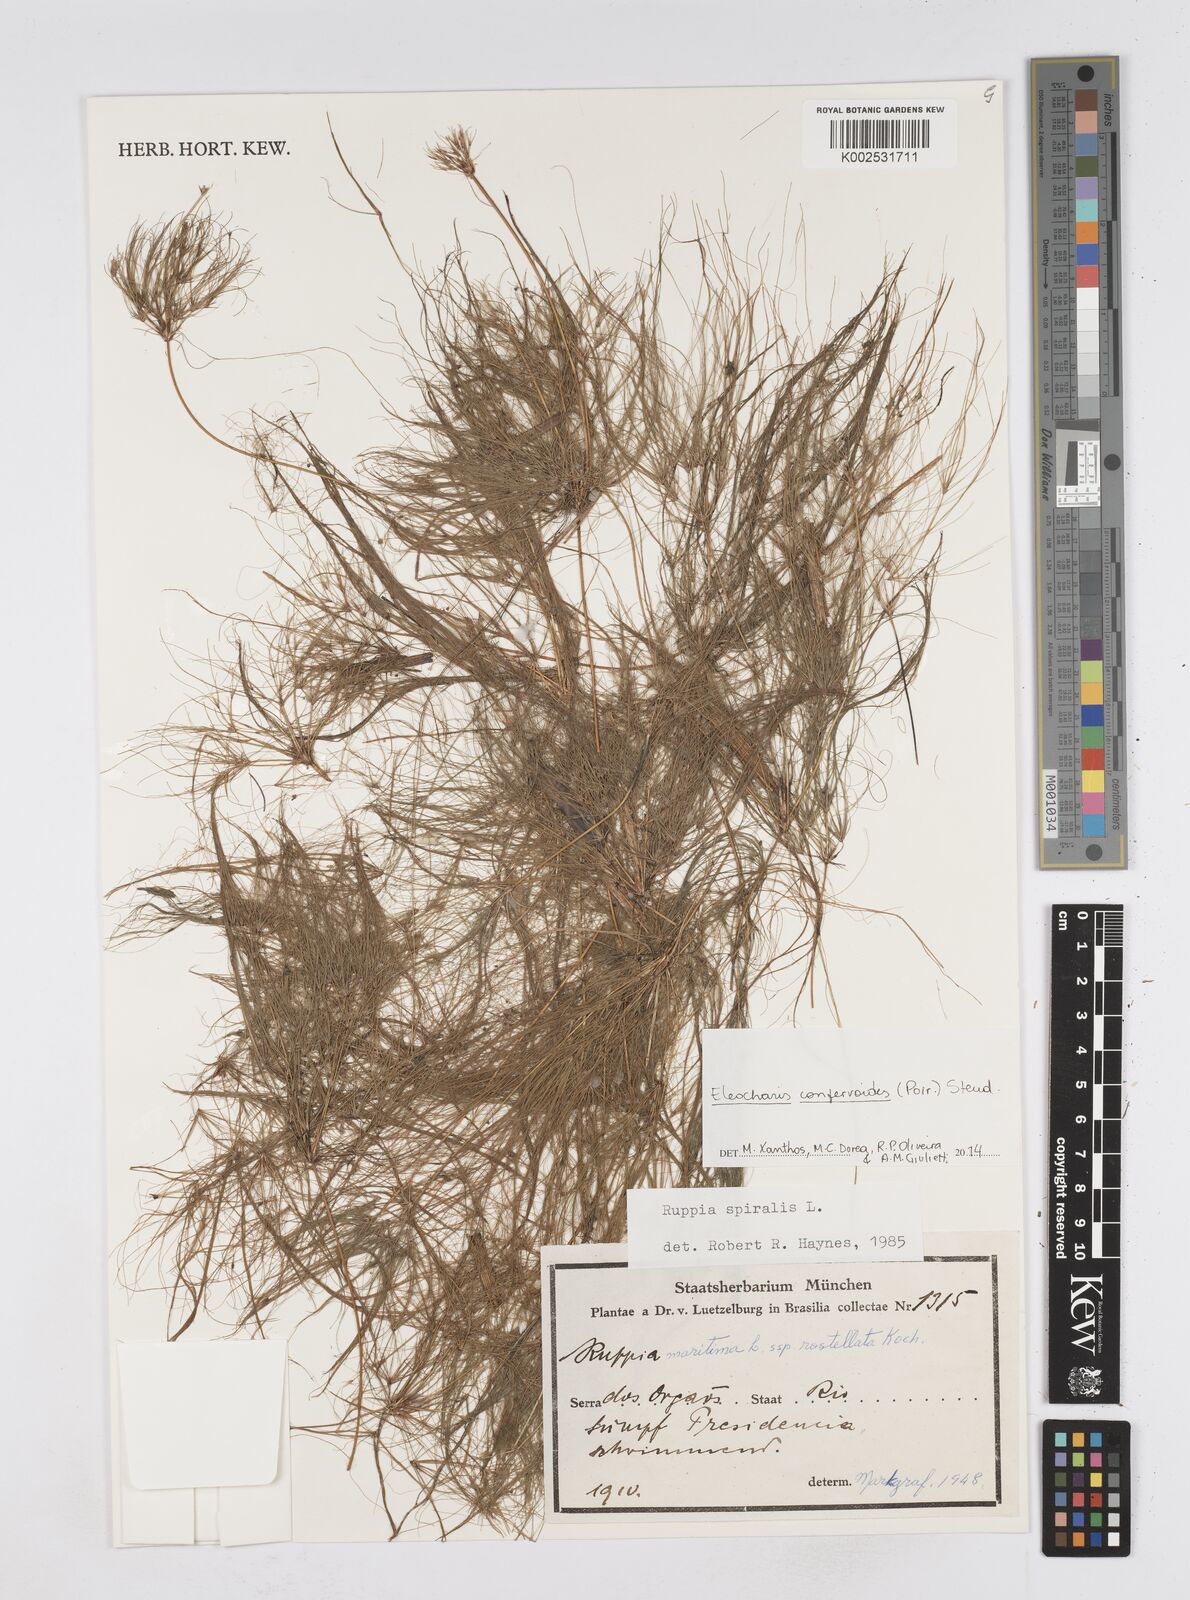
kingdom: Plantae
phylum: Tracheophyta
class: Liliopsida
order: Poales
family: Cyperaceae
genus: Eleocharis
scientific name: Eleocharis confervoides
